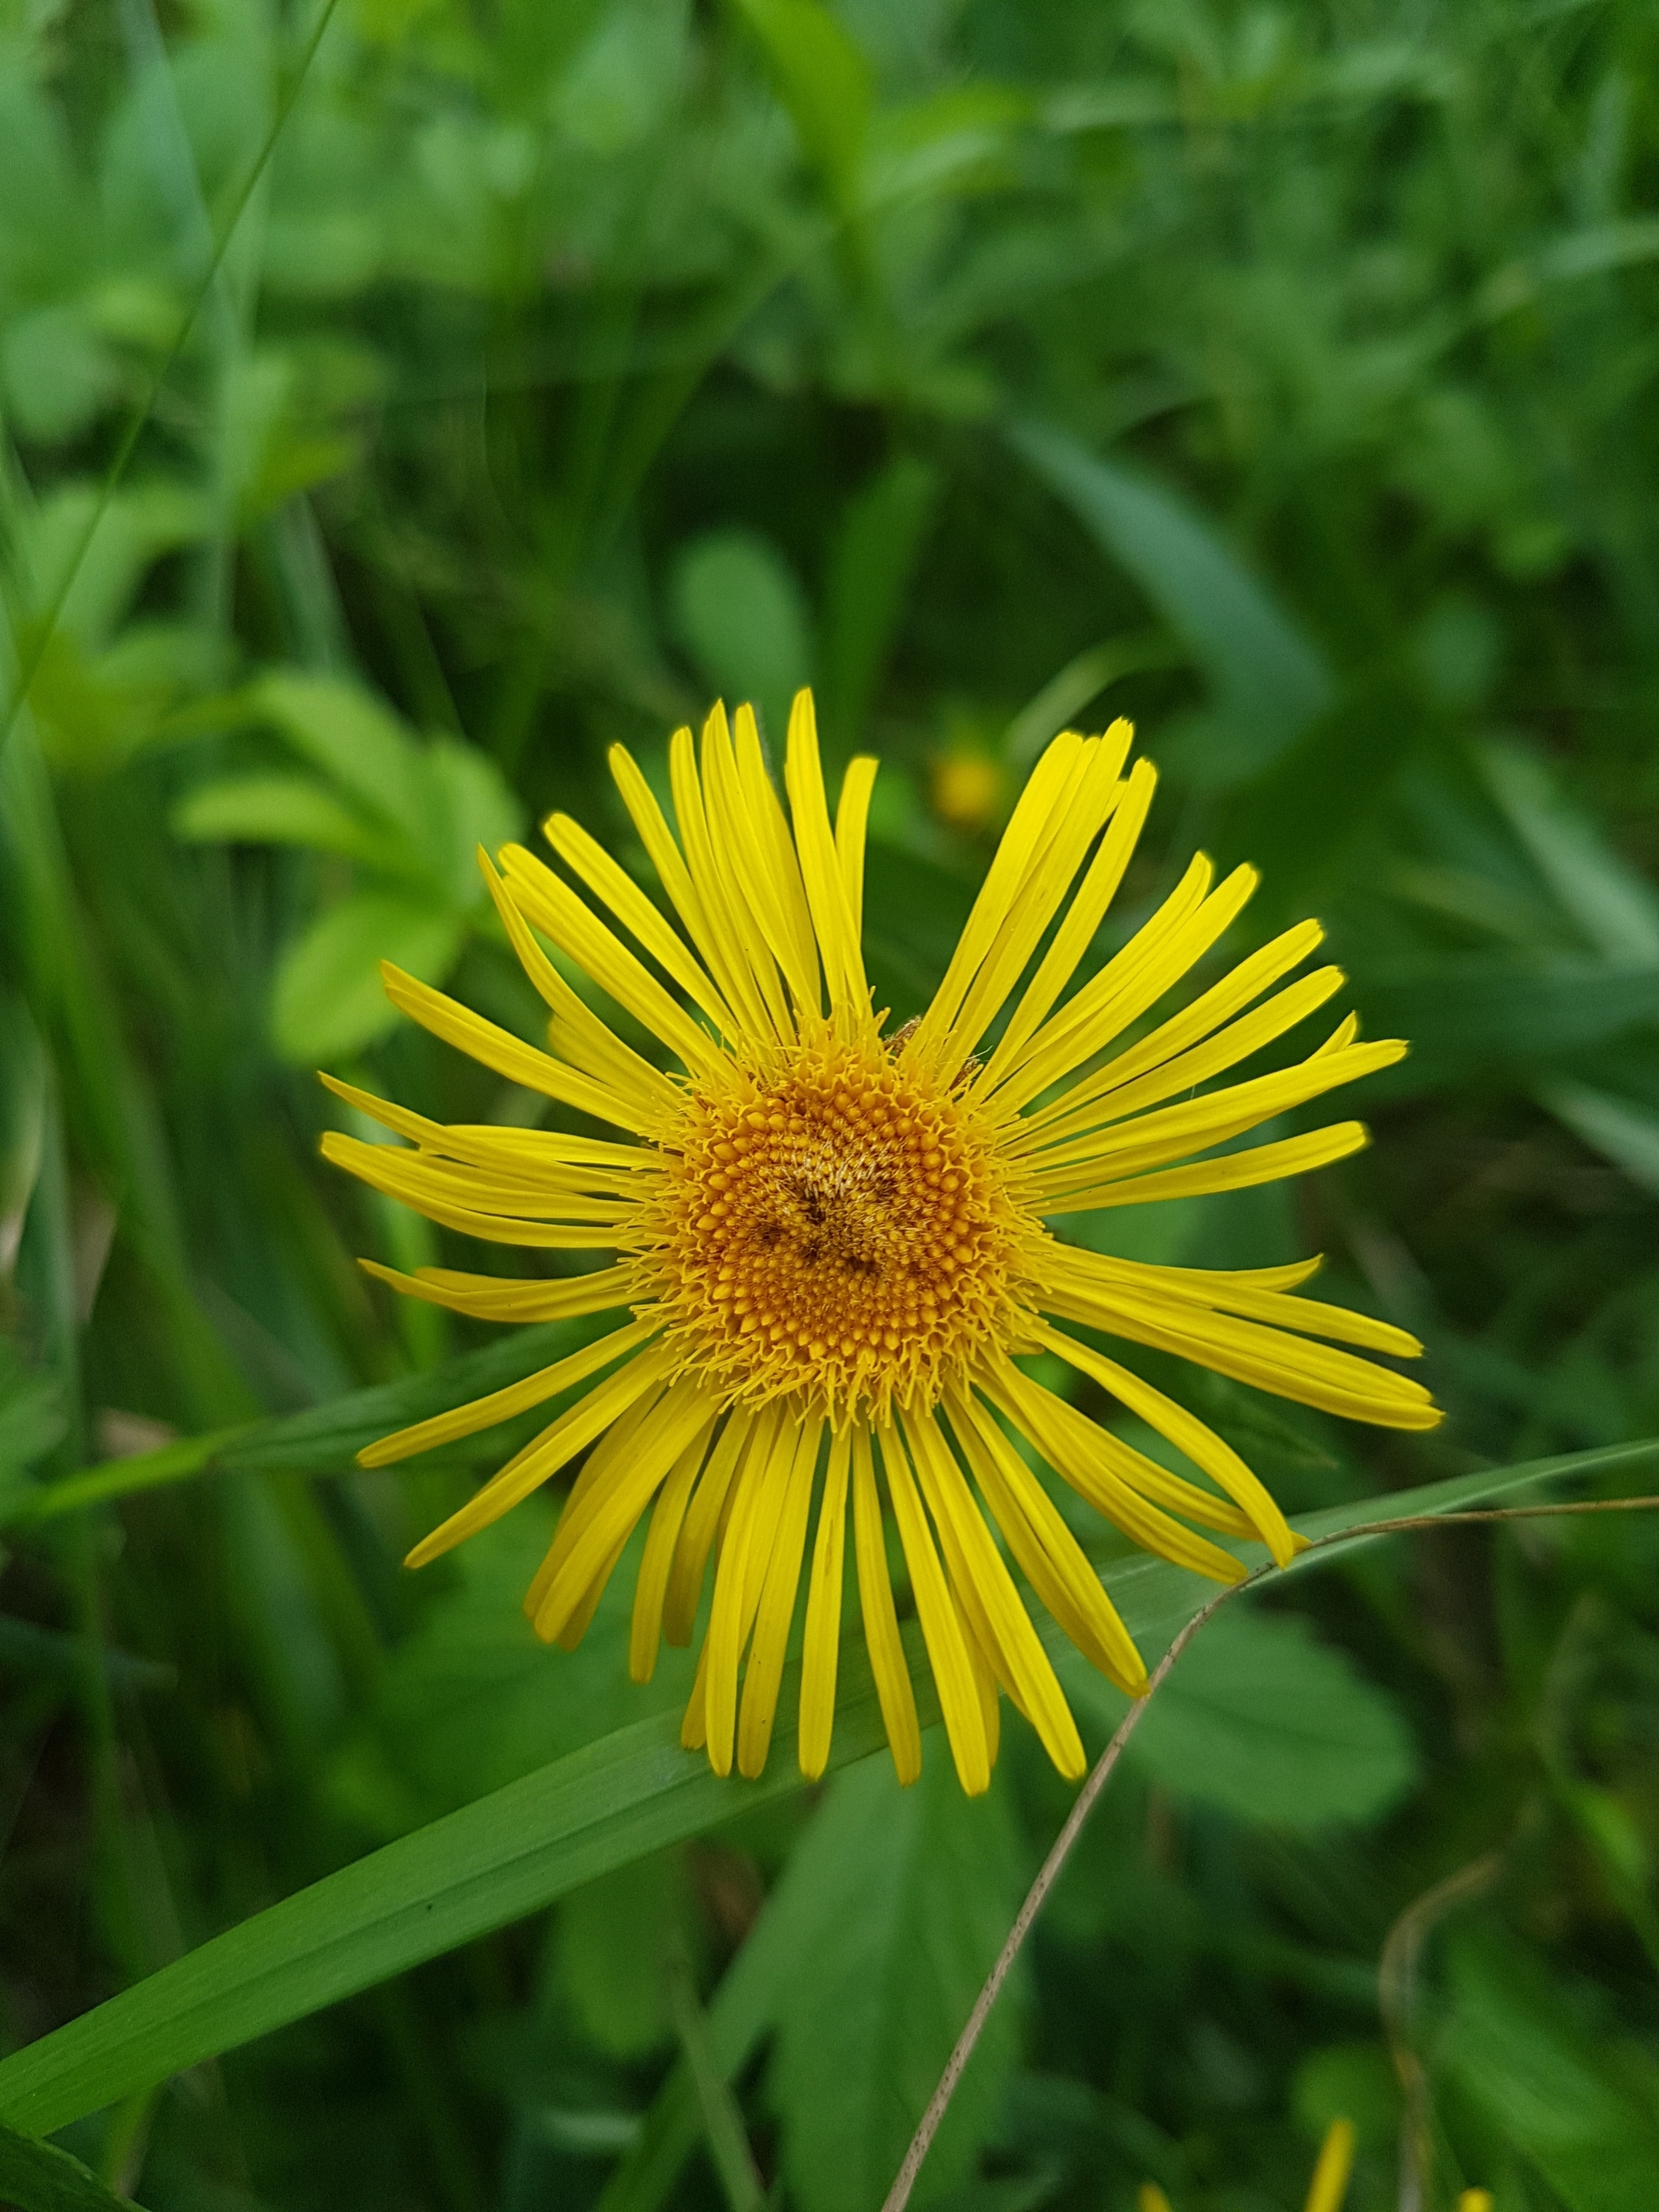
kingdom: Plantae
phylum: Tracheophyta
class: Magnoliopsida
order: Asterales
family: Asteraceae
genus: Pentanema
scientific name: Pentanema salicinum
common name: Pile-alant
